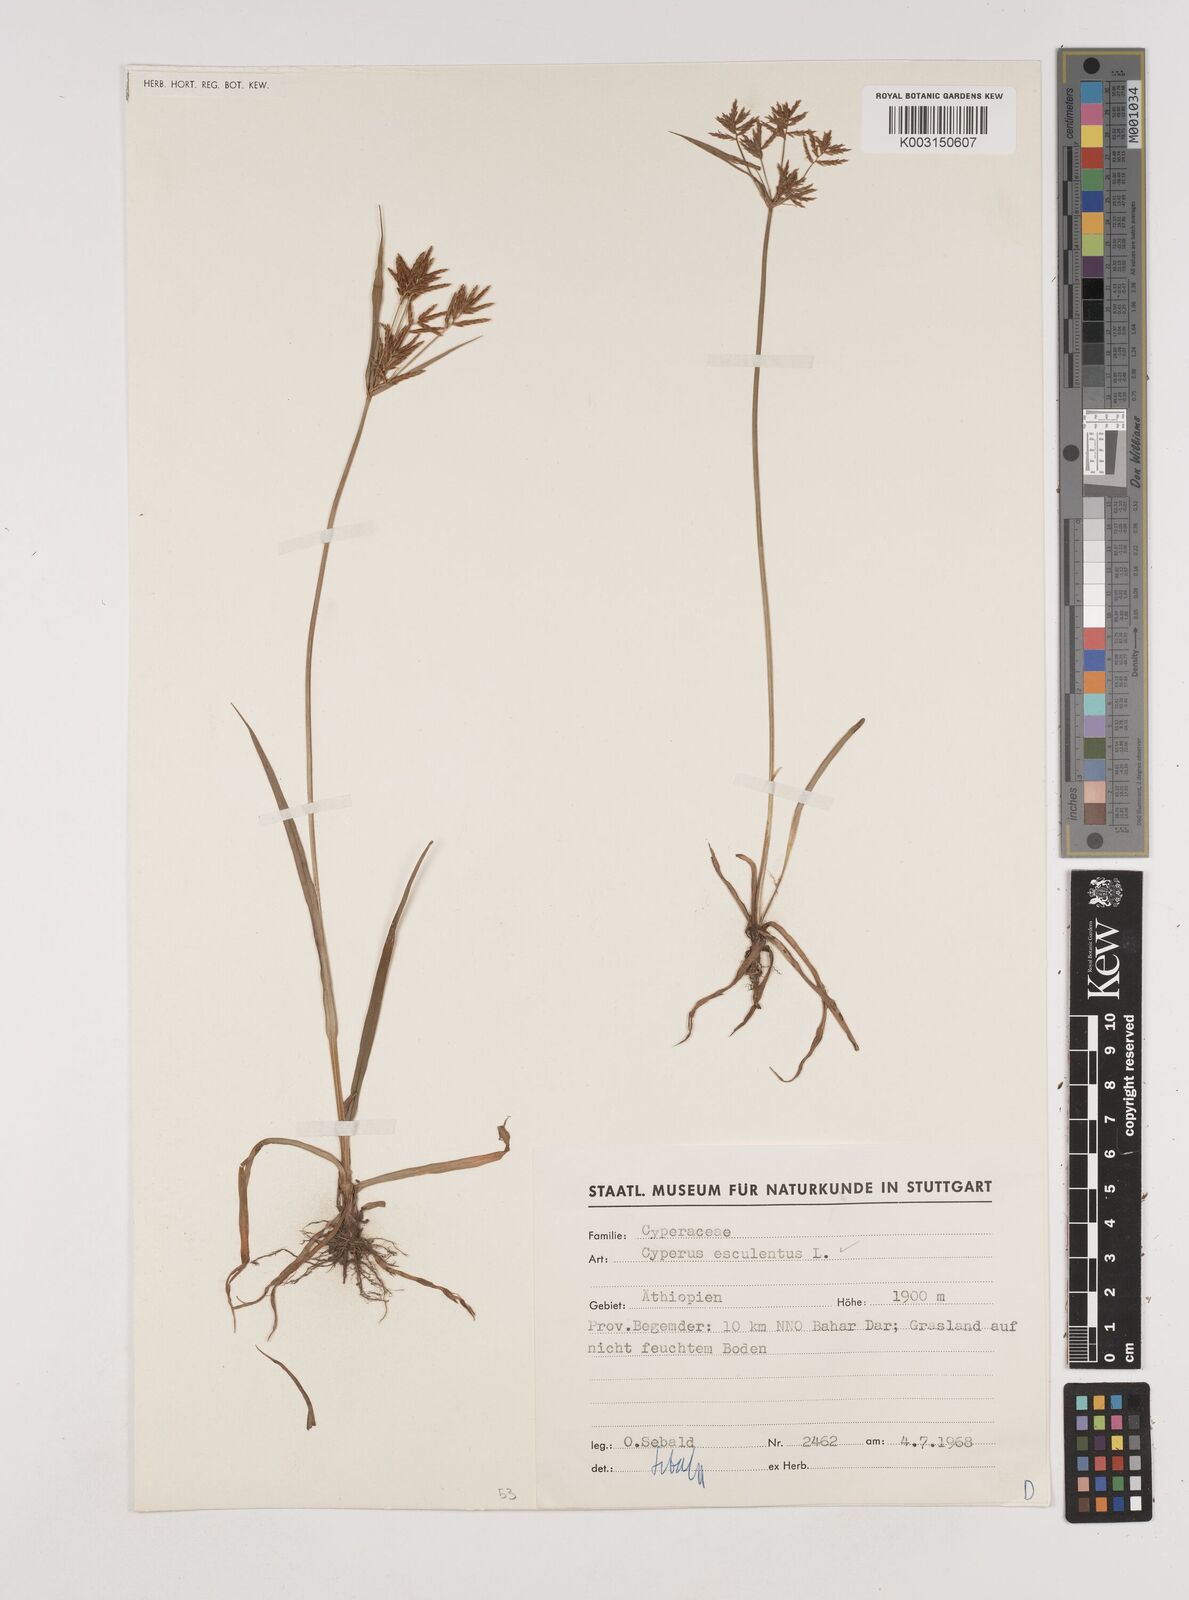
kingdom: Plantae
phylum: Tracheophyta
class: Liliopsida
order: Poales
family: Cyperaceae
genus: Cyperus
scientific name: Cyperus esculentus
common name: Yellow nutsedge
